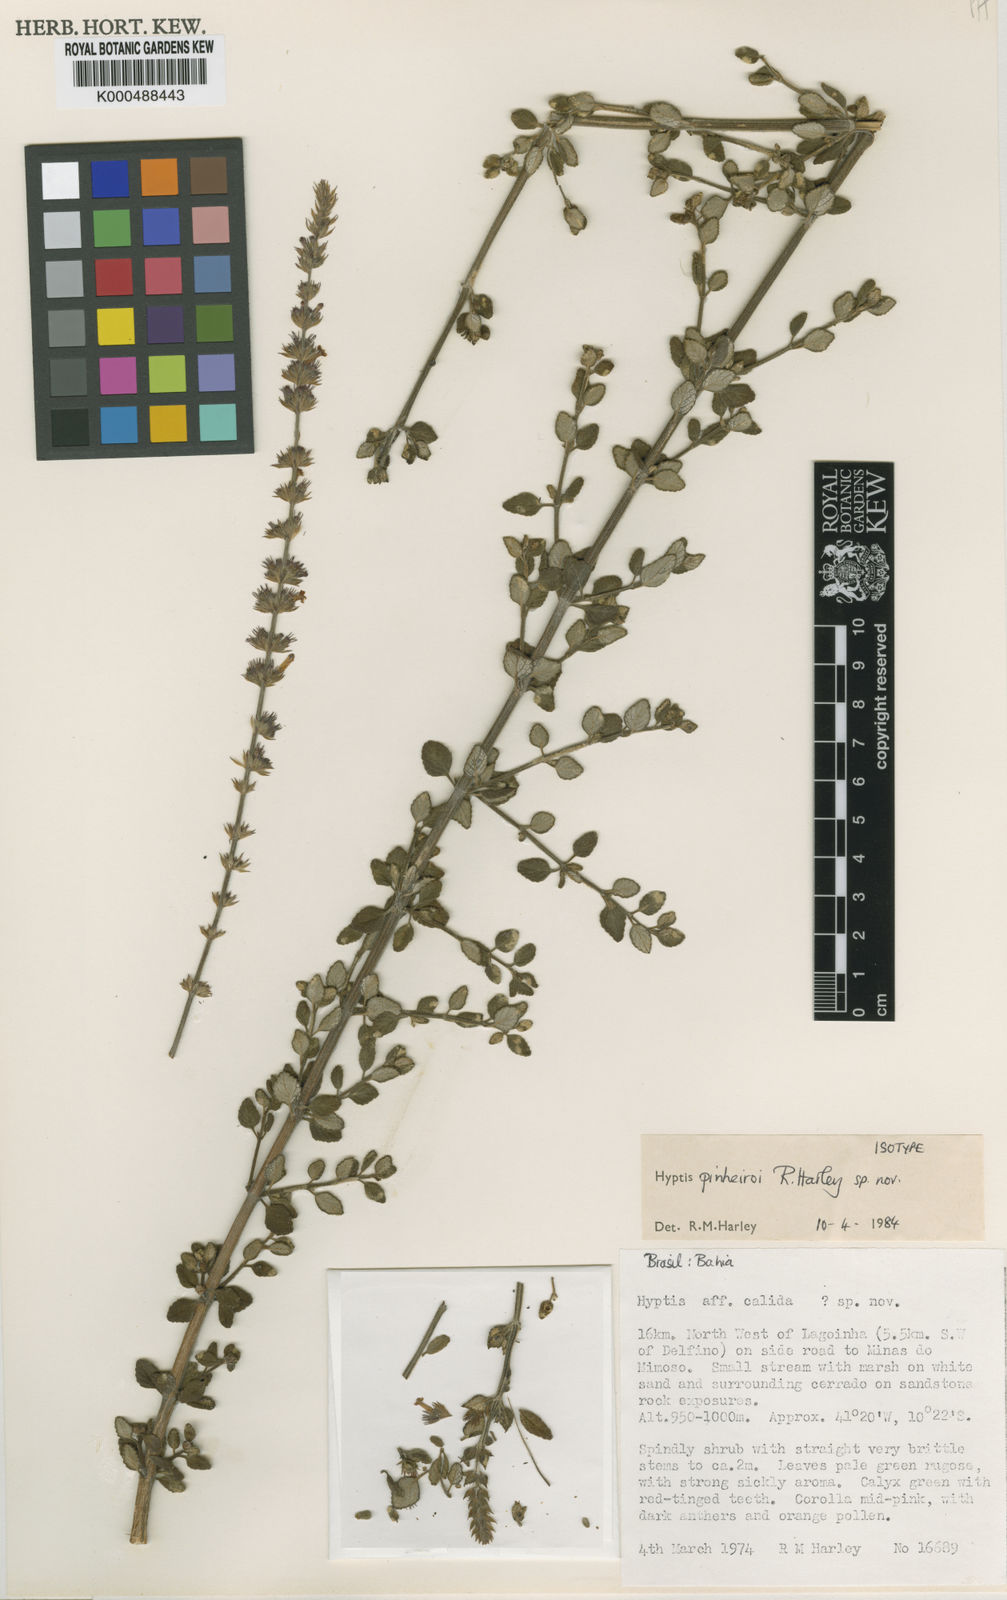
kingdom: Plantae
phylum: Tracheophyta
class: Magnoliopsida
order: Lamiales
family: Lamiaceae
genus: Leptohyptis
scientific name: Leptohyptis pinheiroi
